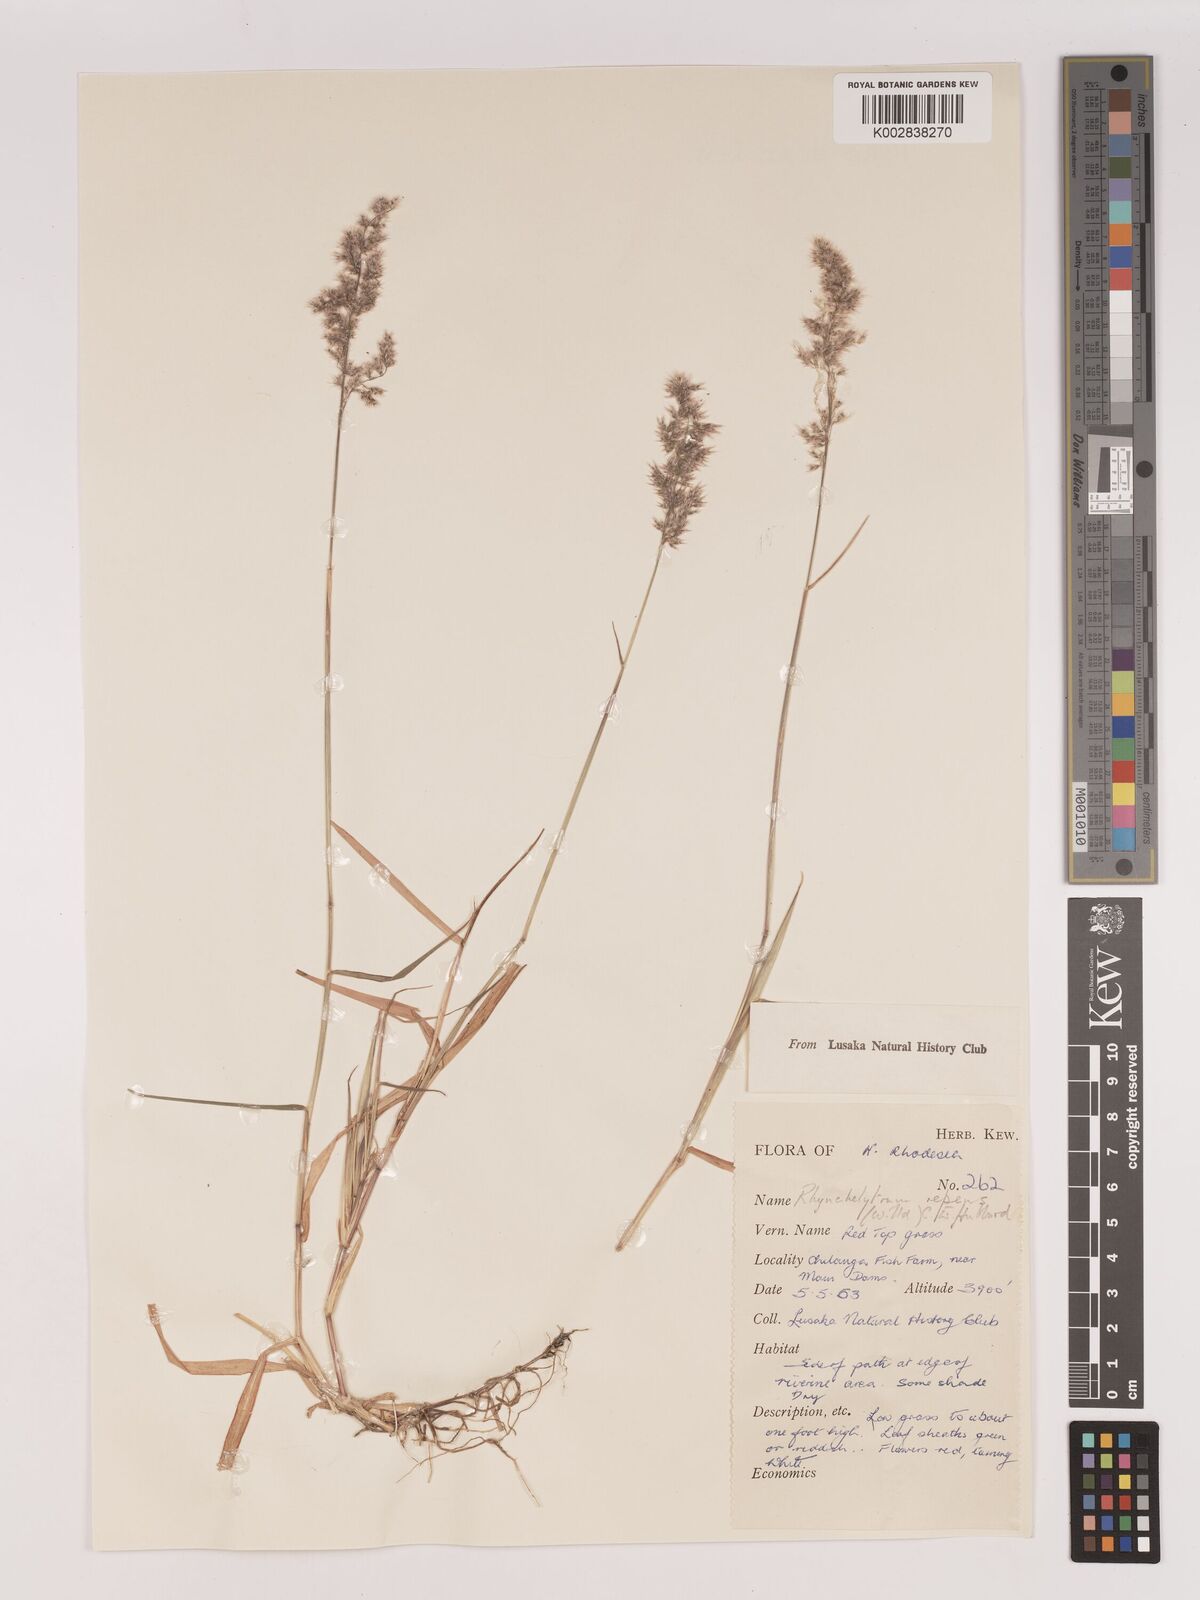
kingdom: Plantae
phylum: Tracheophyta
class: Liliopsida
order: Poales
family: Poaceae
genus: Melinis
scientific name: Melinis repens
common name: Rose natal grass
